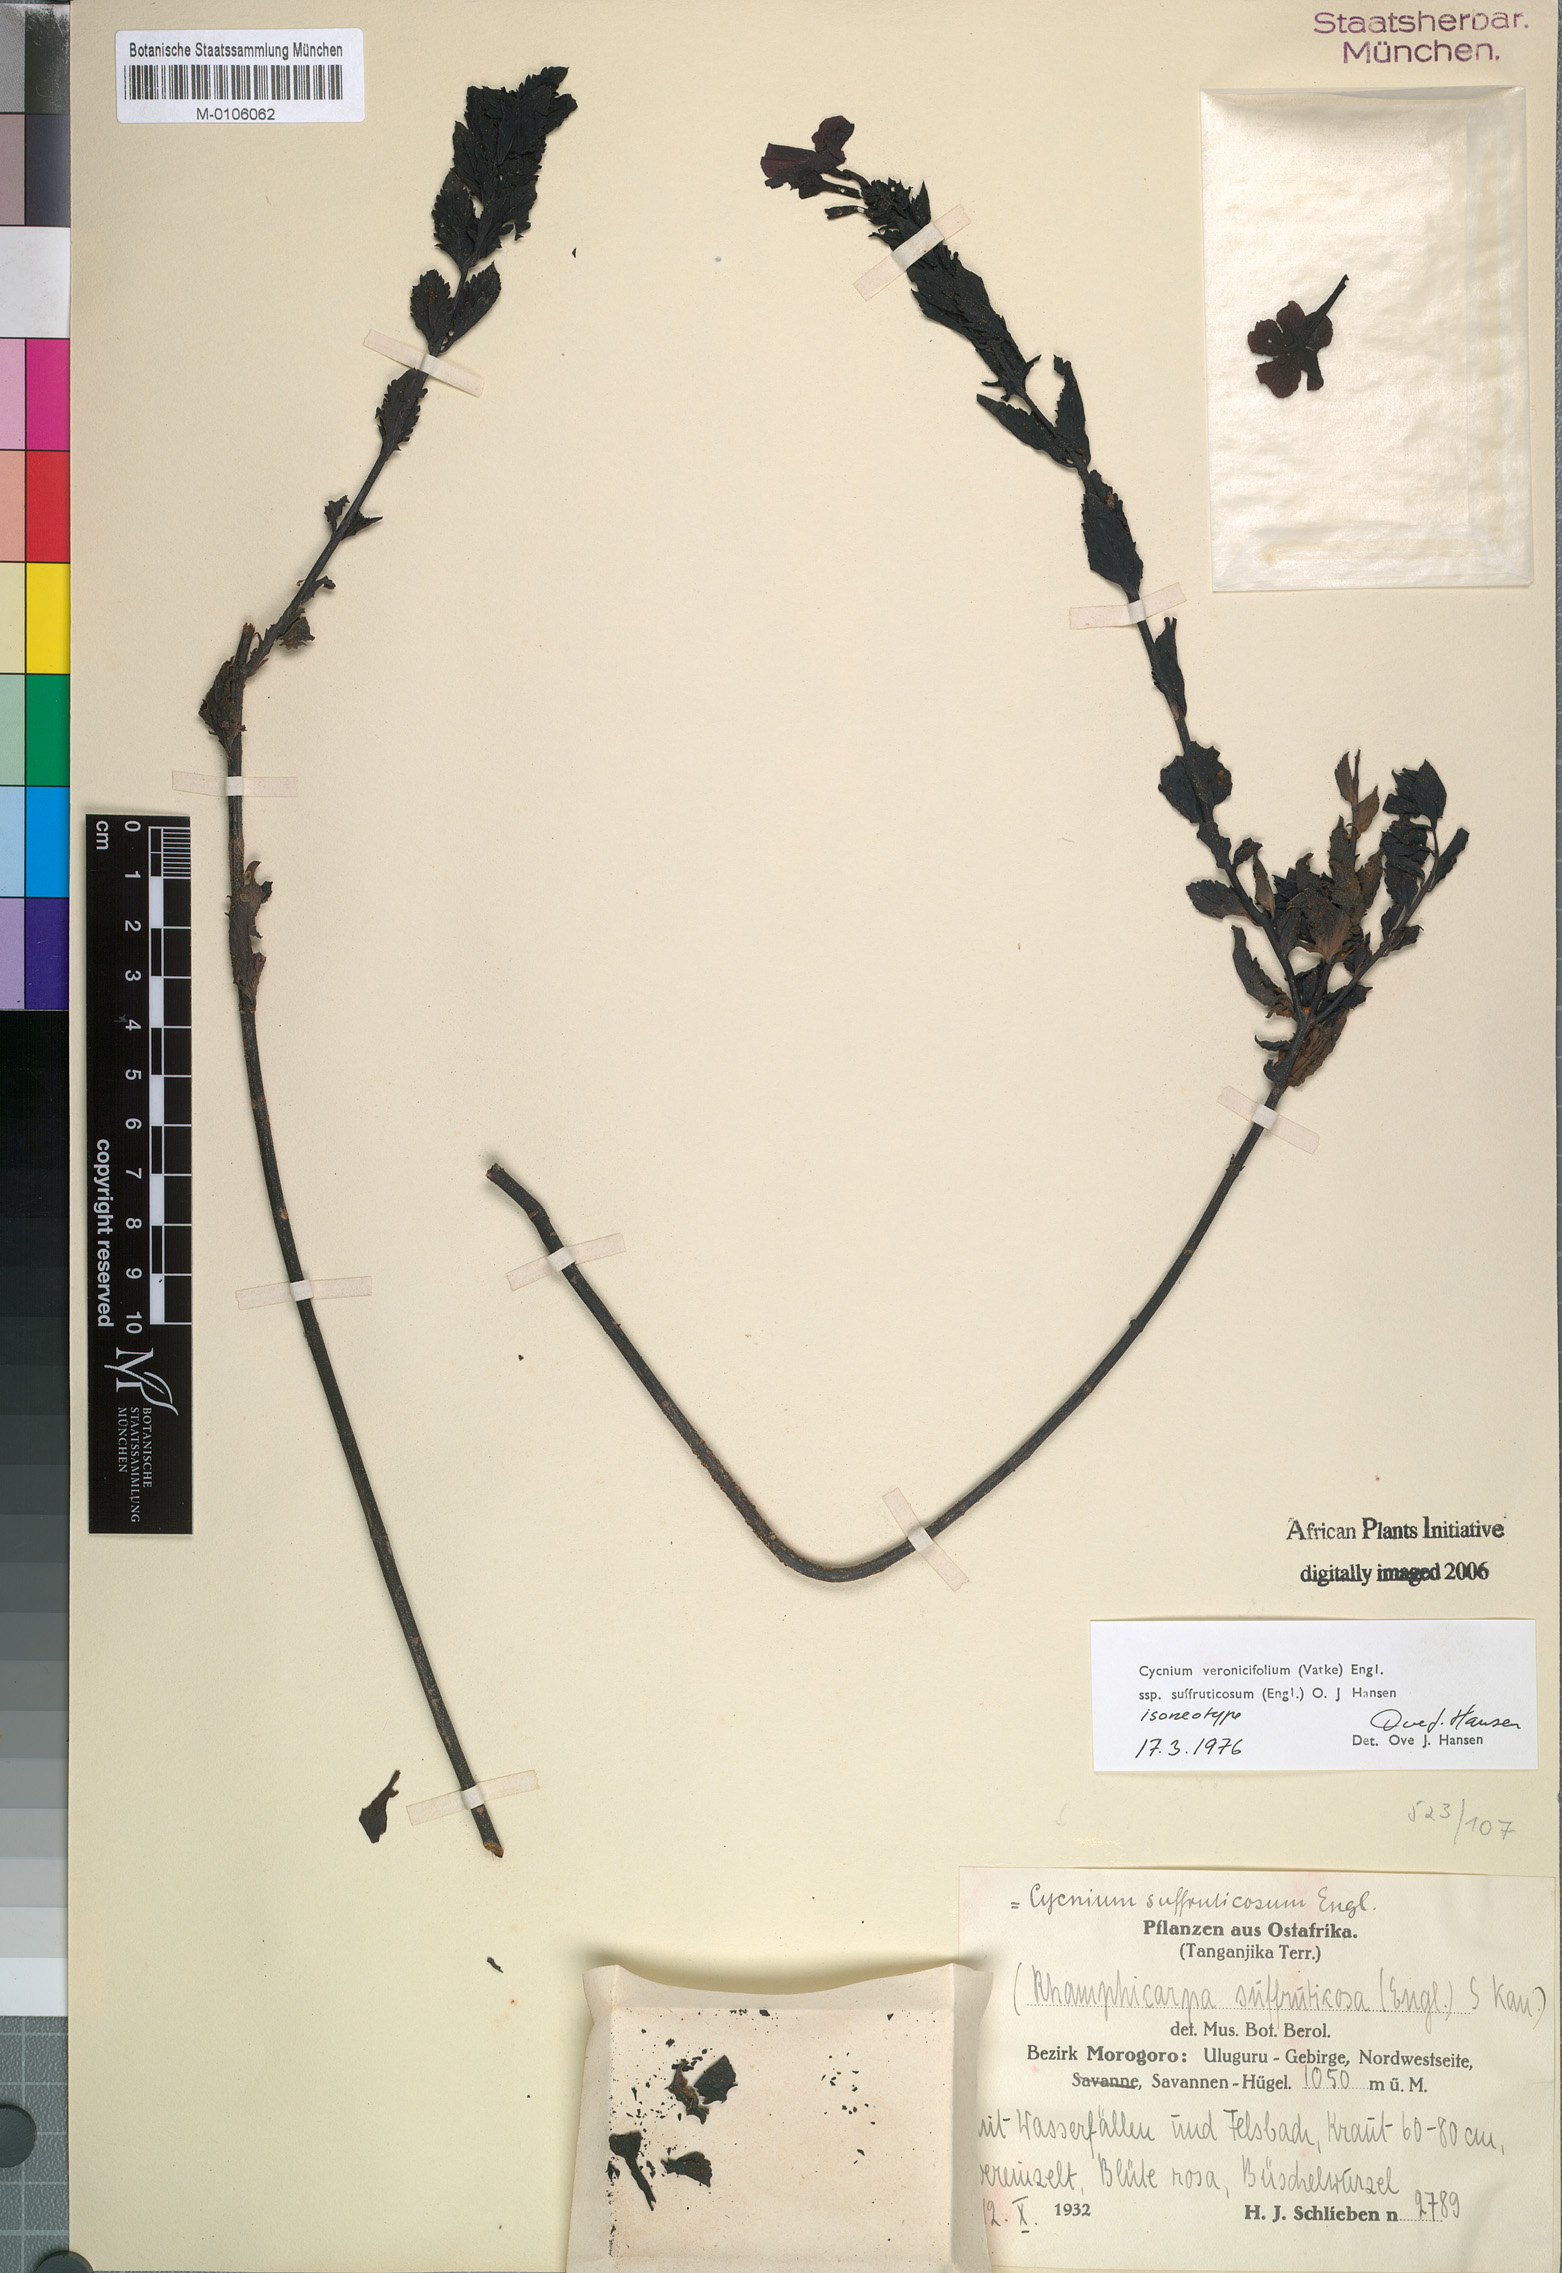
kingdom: Plantae
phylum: Tracheophyta
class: Magnoliopsida
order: Lamiales
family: Orobanchaceae
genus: Cycnium
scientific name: Cycnium veronicifolium
